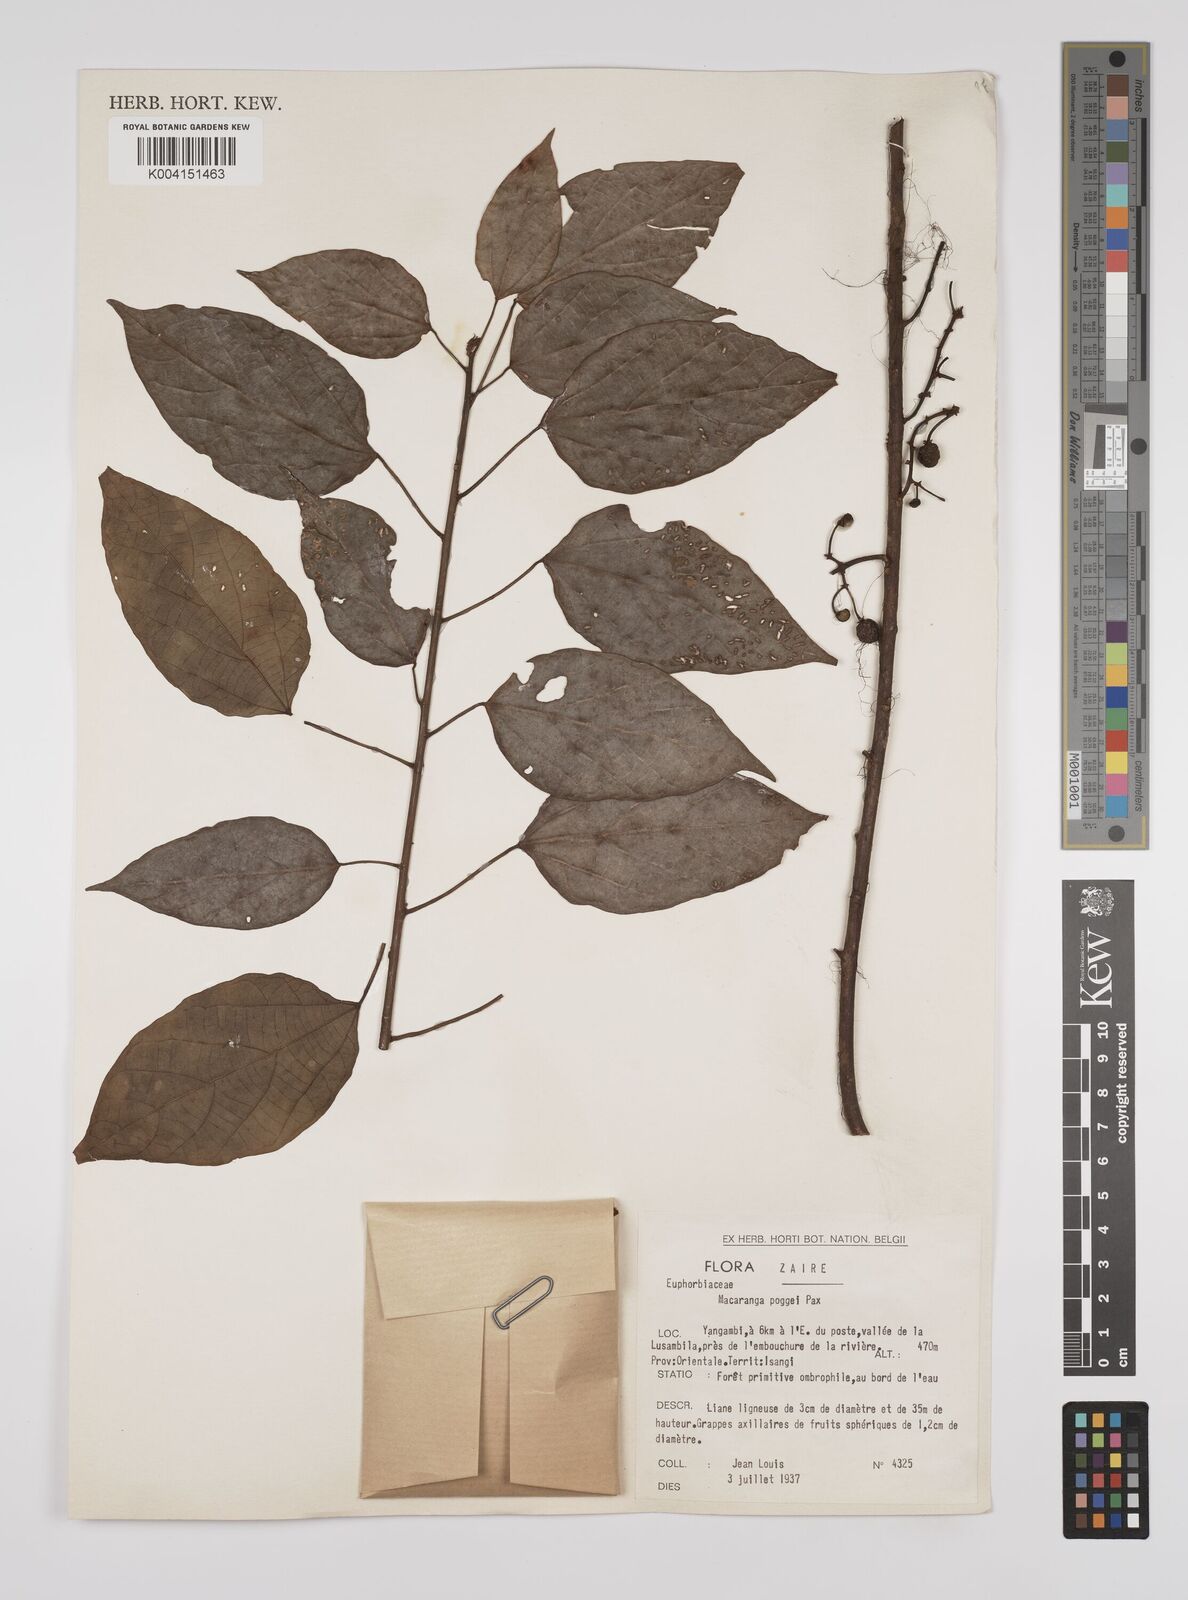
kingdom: Plantae
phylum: Tracheophyta
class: Magnoliopsida
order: Malpighiales
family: Euphorbiaceae
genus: Macaranga
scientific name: Macaranga poggei
